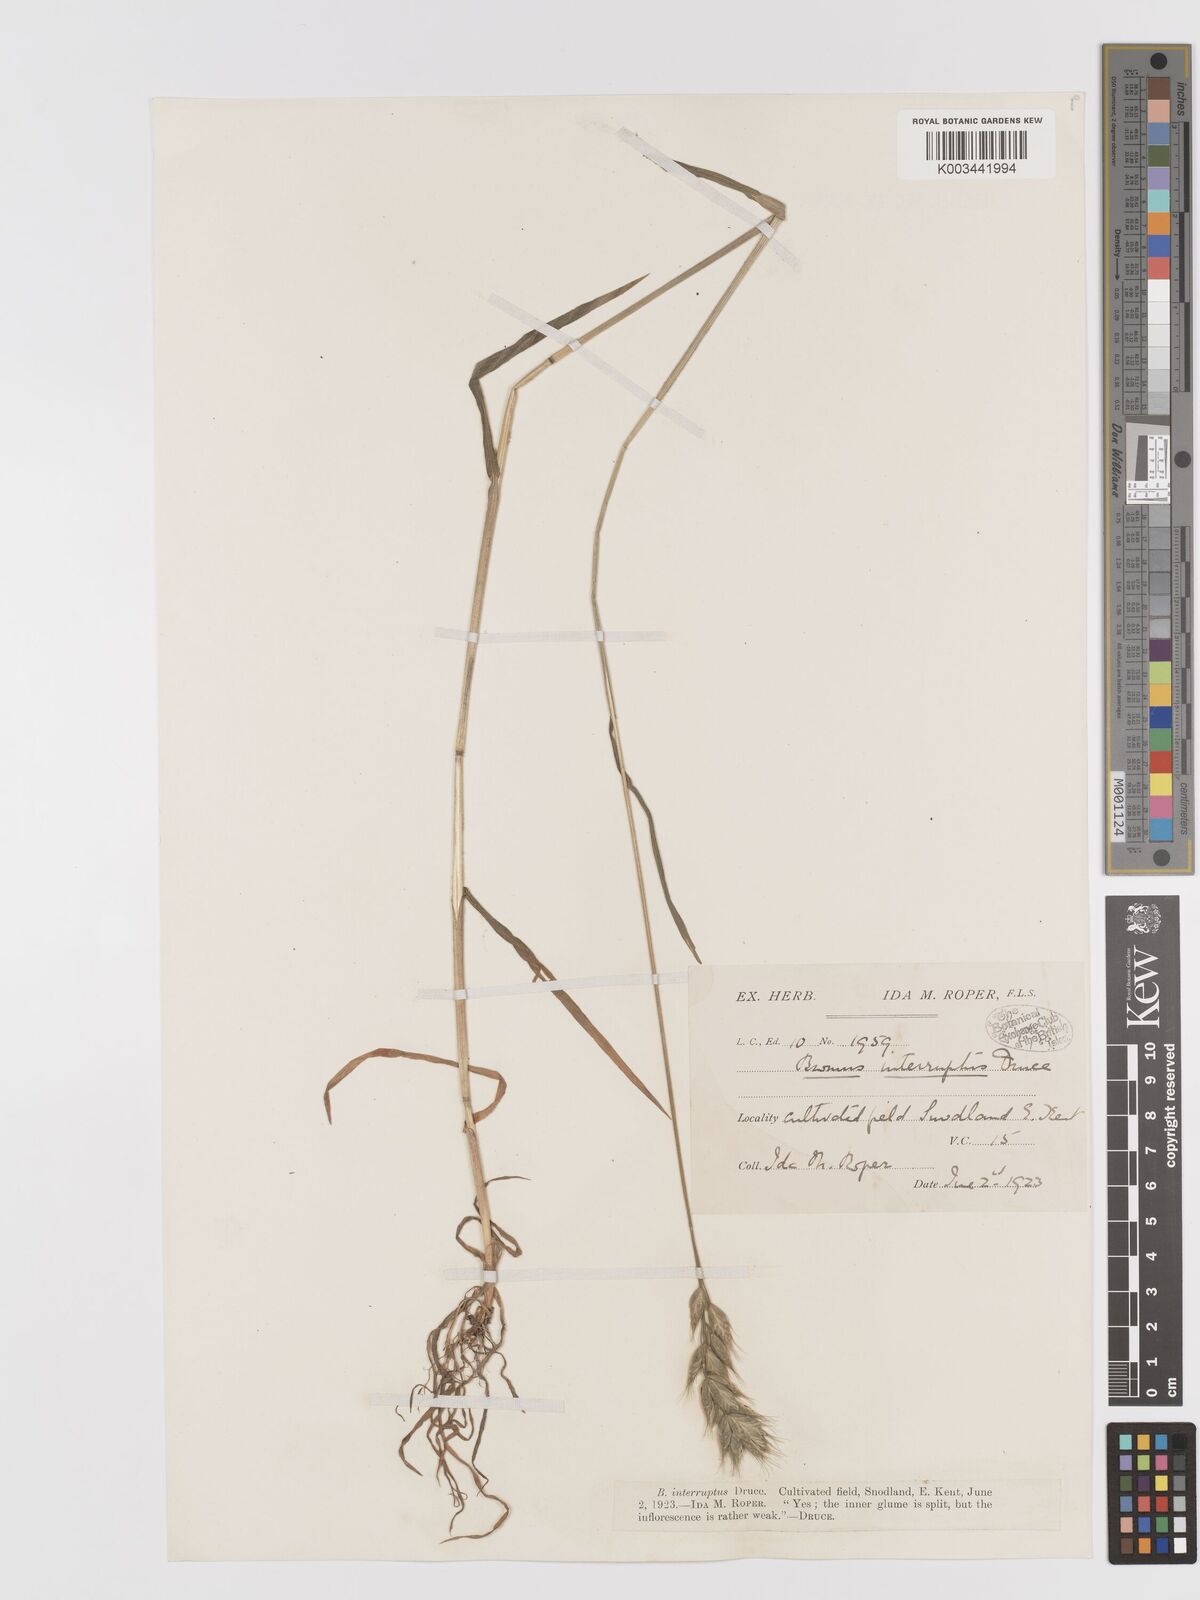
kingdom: Plantae
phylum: Tracheophyta
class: Liliopsida
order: Poales
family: Poaceae
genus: Bromus
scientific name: Bromus interruptus
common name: Interrupted brome
